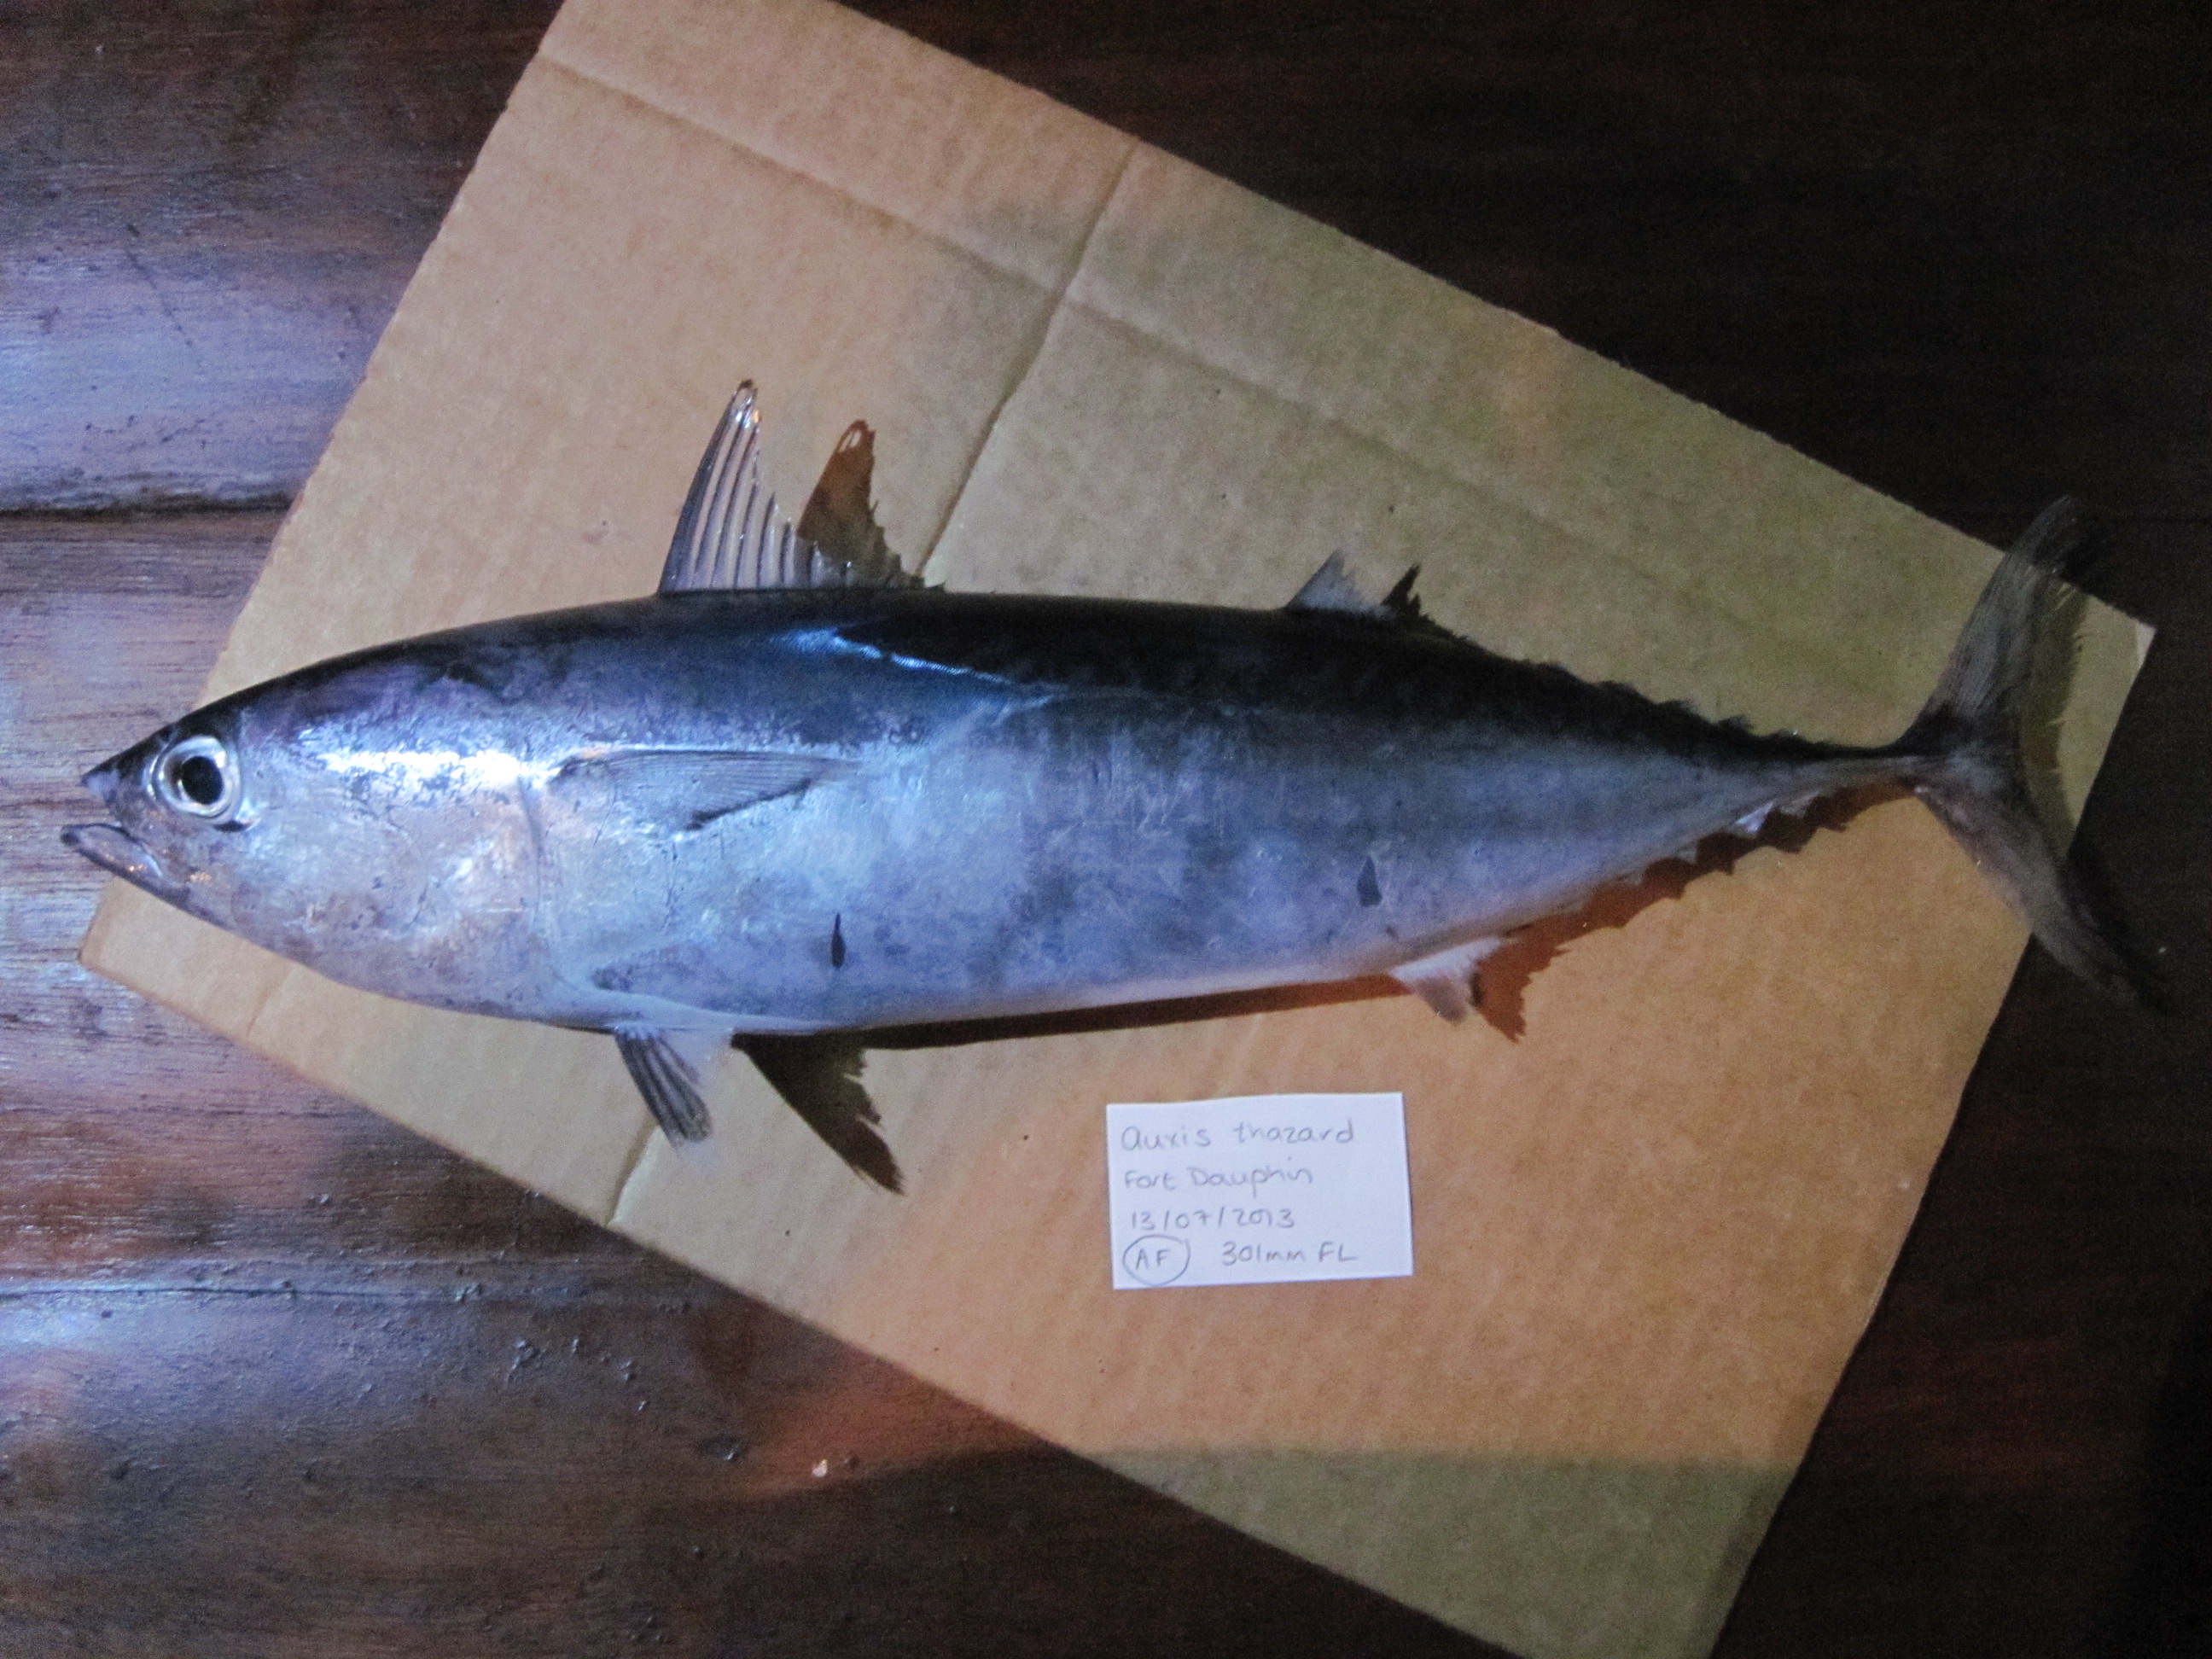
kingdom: Animalia
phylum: Chordata
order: Perciformes
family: Scombridae
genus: Auxis
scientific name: Auxis thazard
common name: Frigate mackerel
